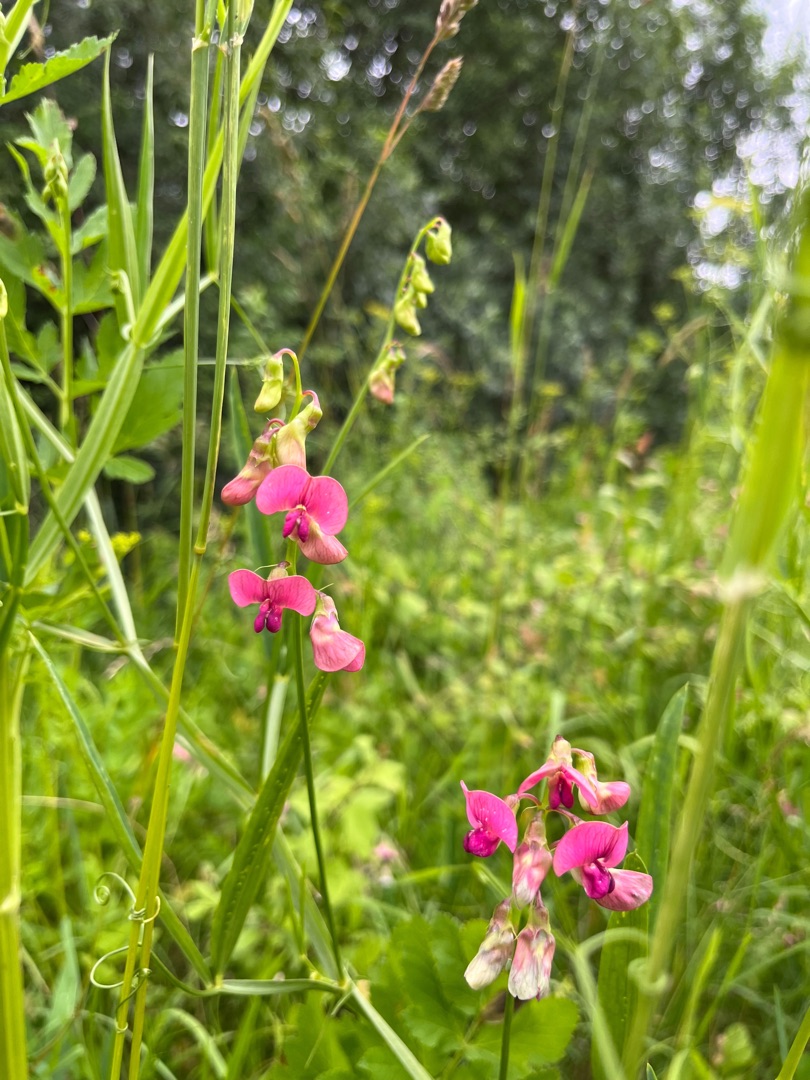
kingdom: Plantae
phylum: Tracheophyta
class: Magnoliopsida
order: Fabales
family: Fabaceae
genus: Lathyrus
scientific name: Lathyrus sylvestris
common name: Skov-fladbælg
